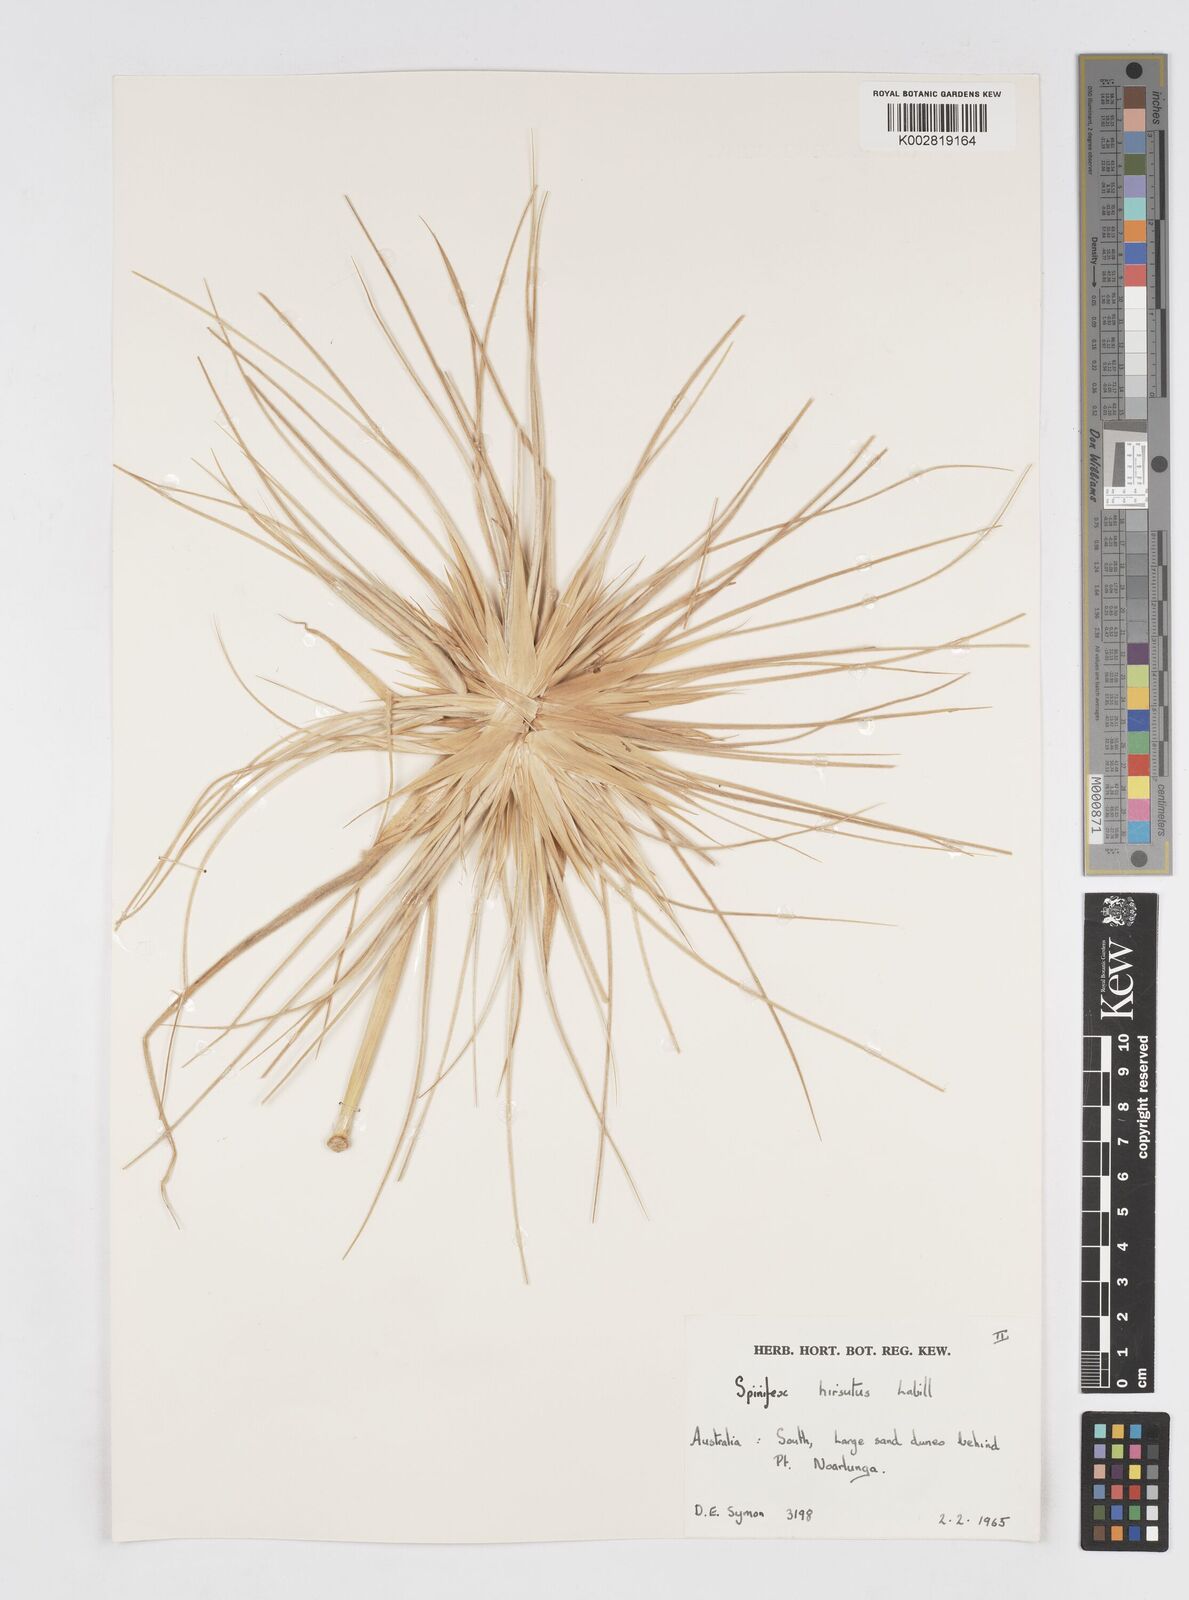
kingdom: Plantae
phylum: Tracheophyta
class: Liliopsida
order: Poales
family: Poaceae
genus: Spinifex
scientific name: Spinifex hirsutus
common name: Hairy spinifex
